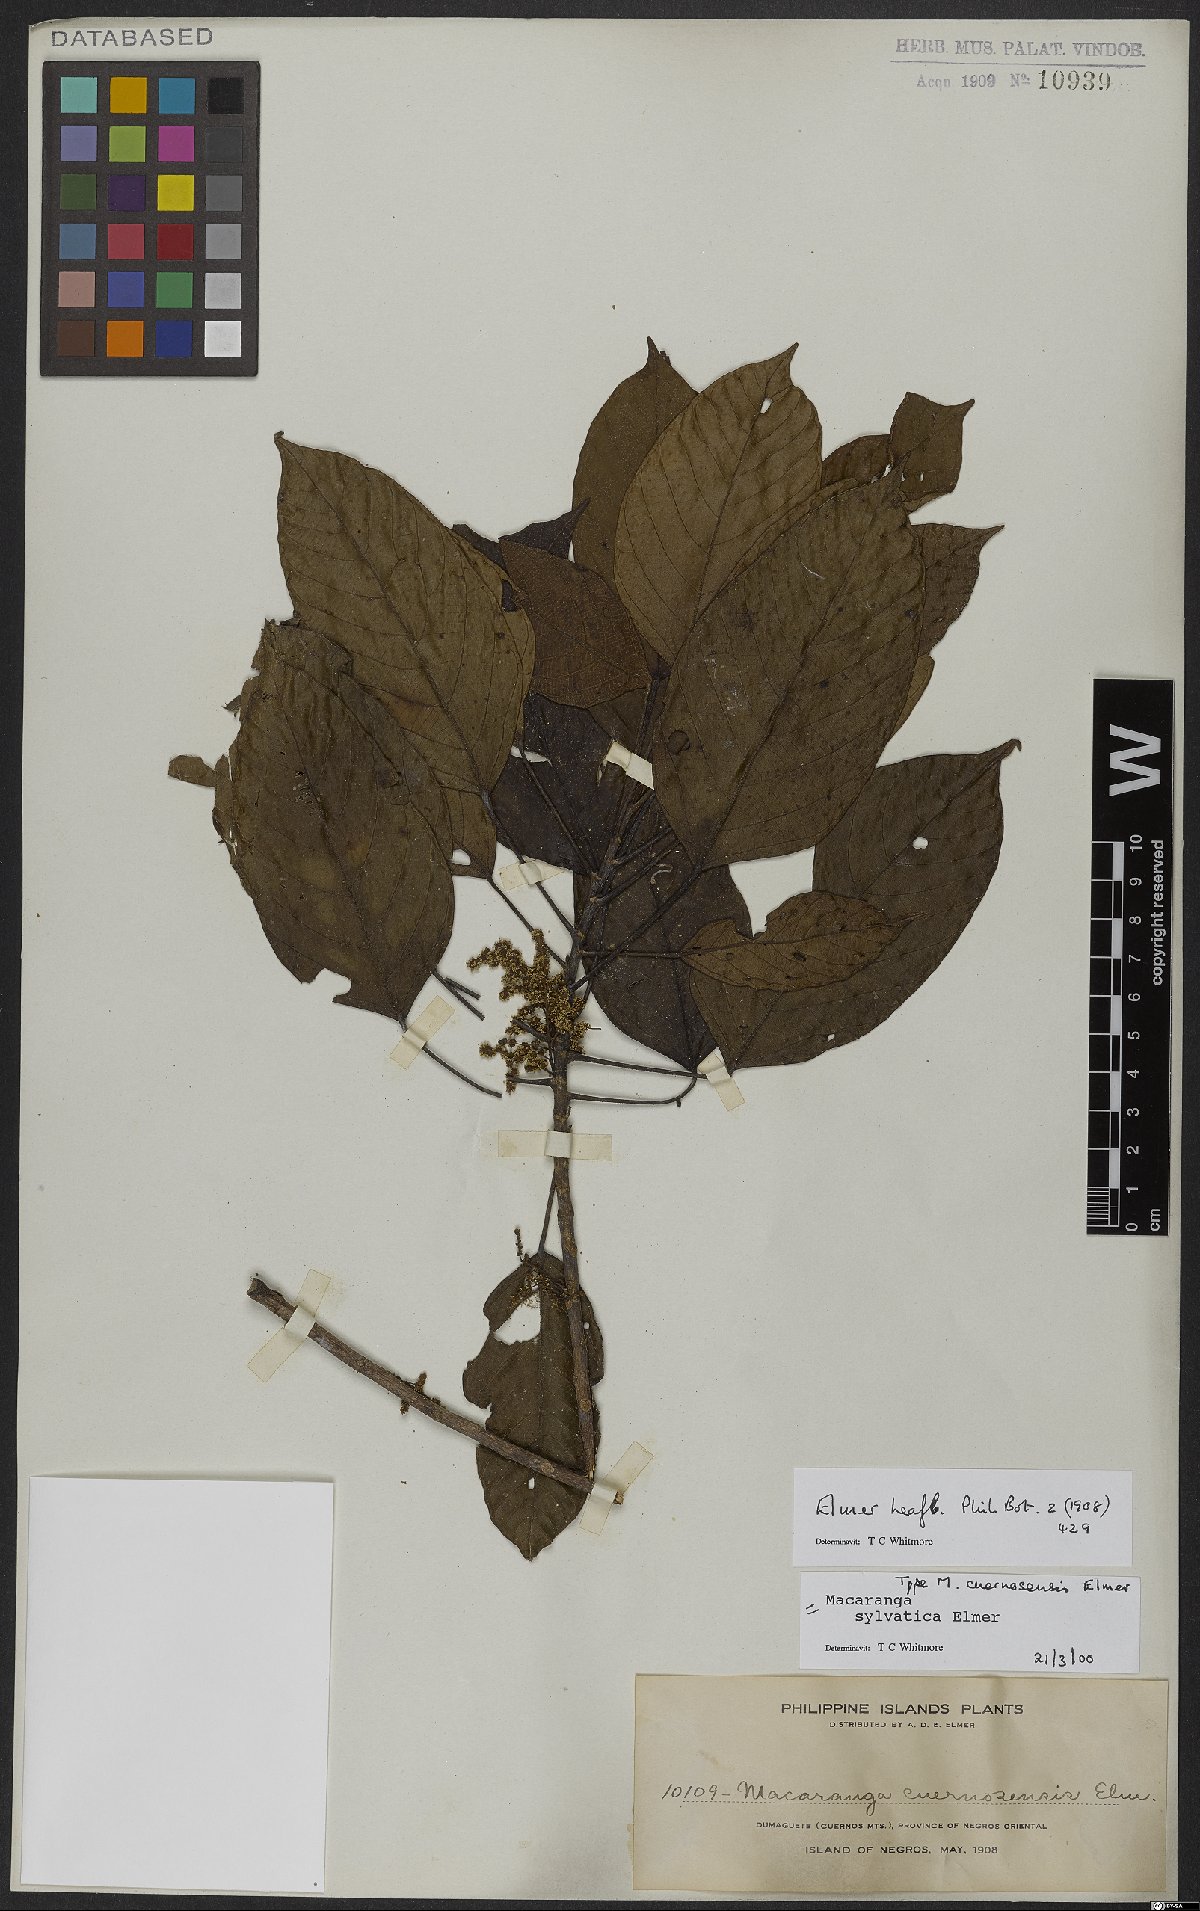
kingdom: Plantae
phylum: Tracheophyta
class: Magnoliopsida
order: Malpighiales
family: Euphorbiaceae
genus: Macaranga
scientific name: Macaranga sylvatica
